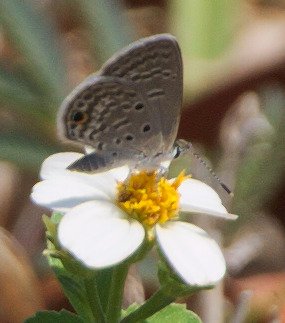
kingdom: Animalia
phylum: Arthropoda
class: Insecta
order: Lepidoptera
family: Lycaenidae
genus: Hemiargus
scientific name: Hemiargus ceraunus
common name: Ceraunus Blue
